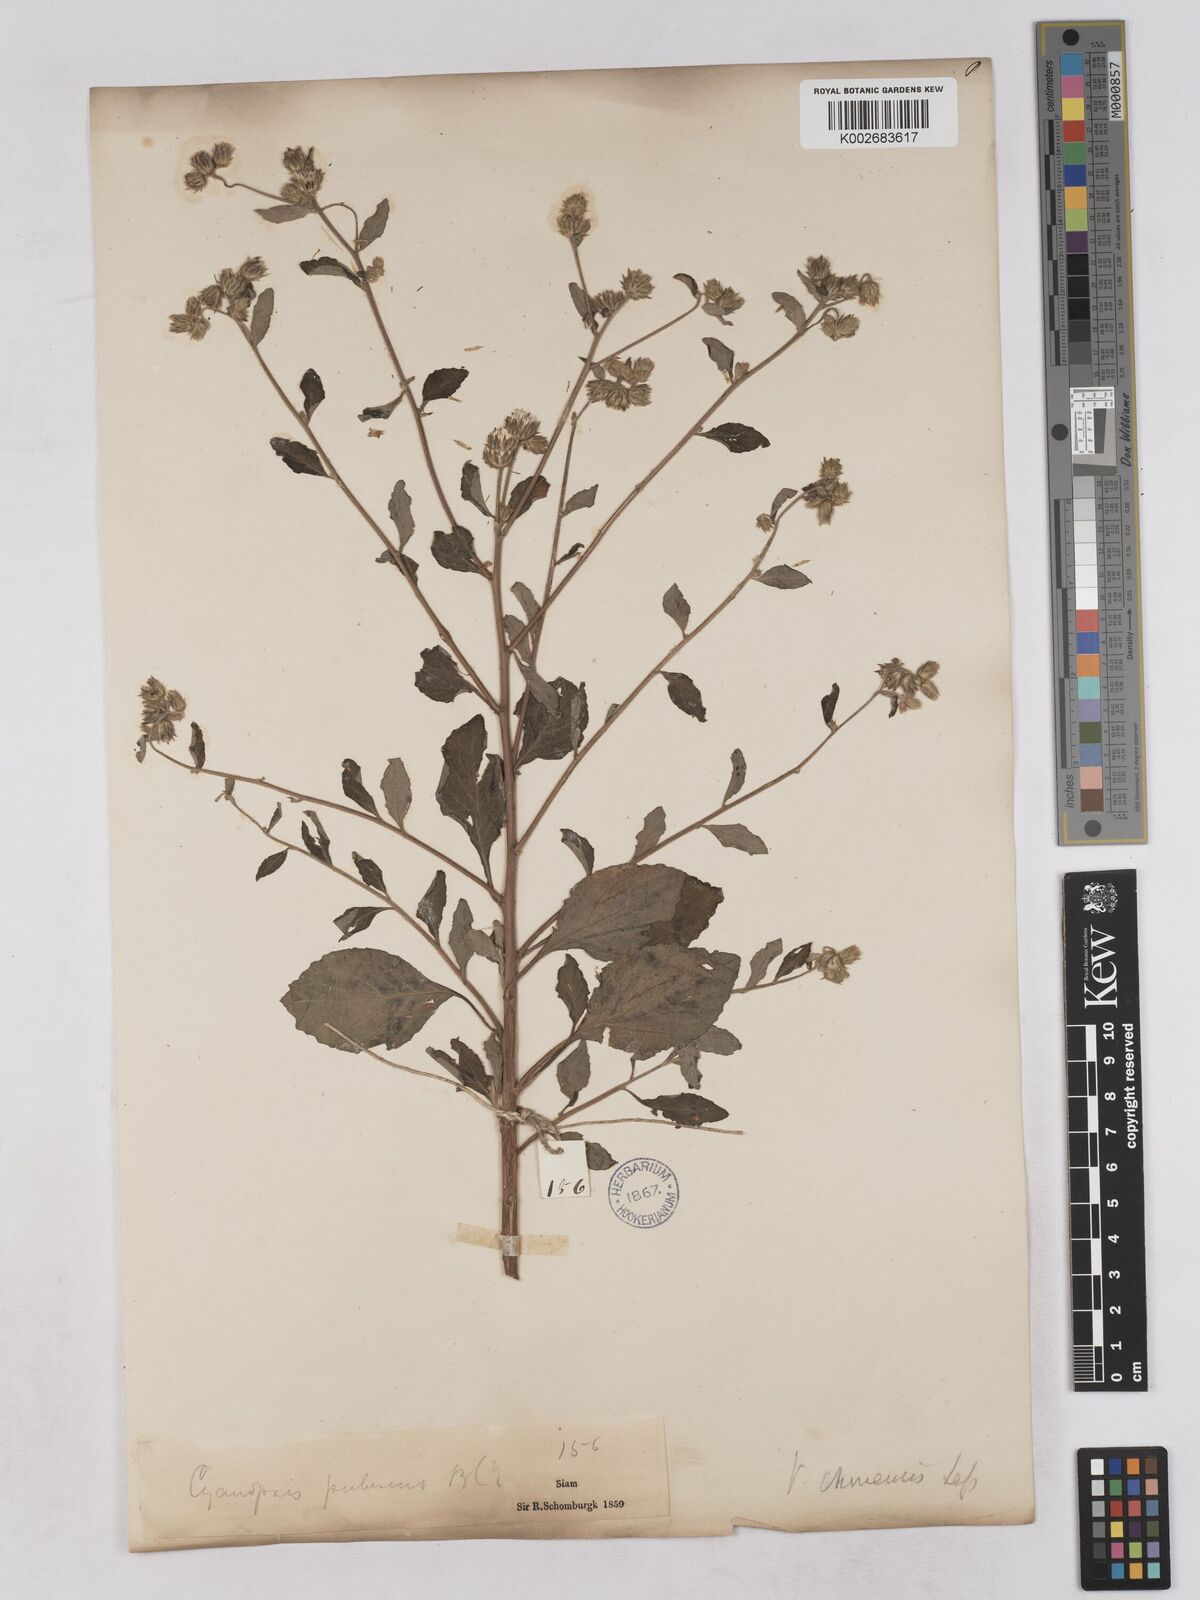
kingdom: Plantae
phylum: Tracheophyta
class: Magnoliopsida
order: Asterales
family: Asteraceae
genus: Cyanthillium
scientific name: Cyanthillium patulum
